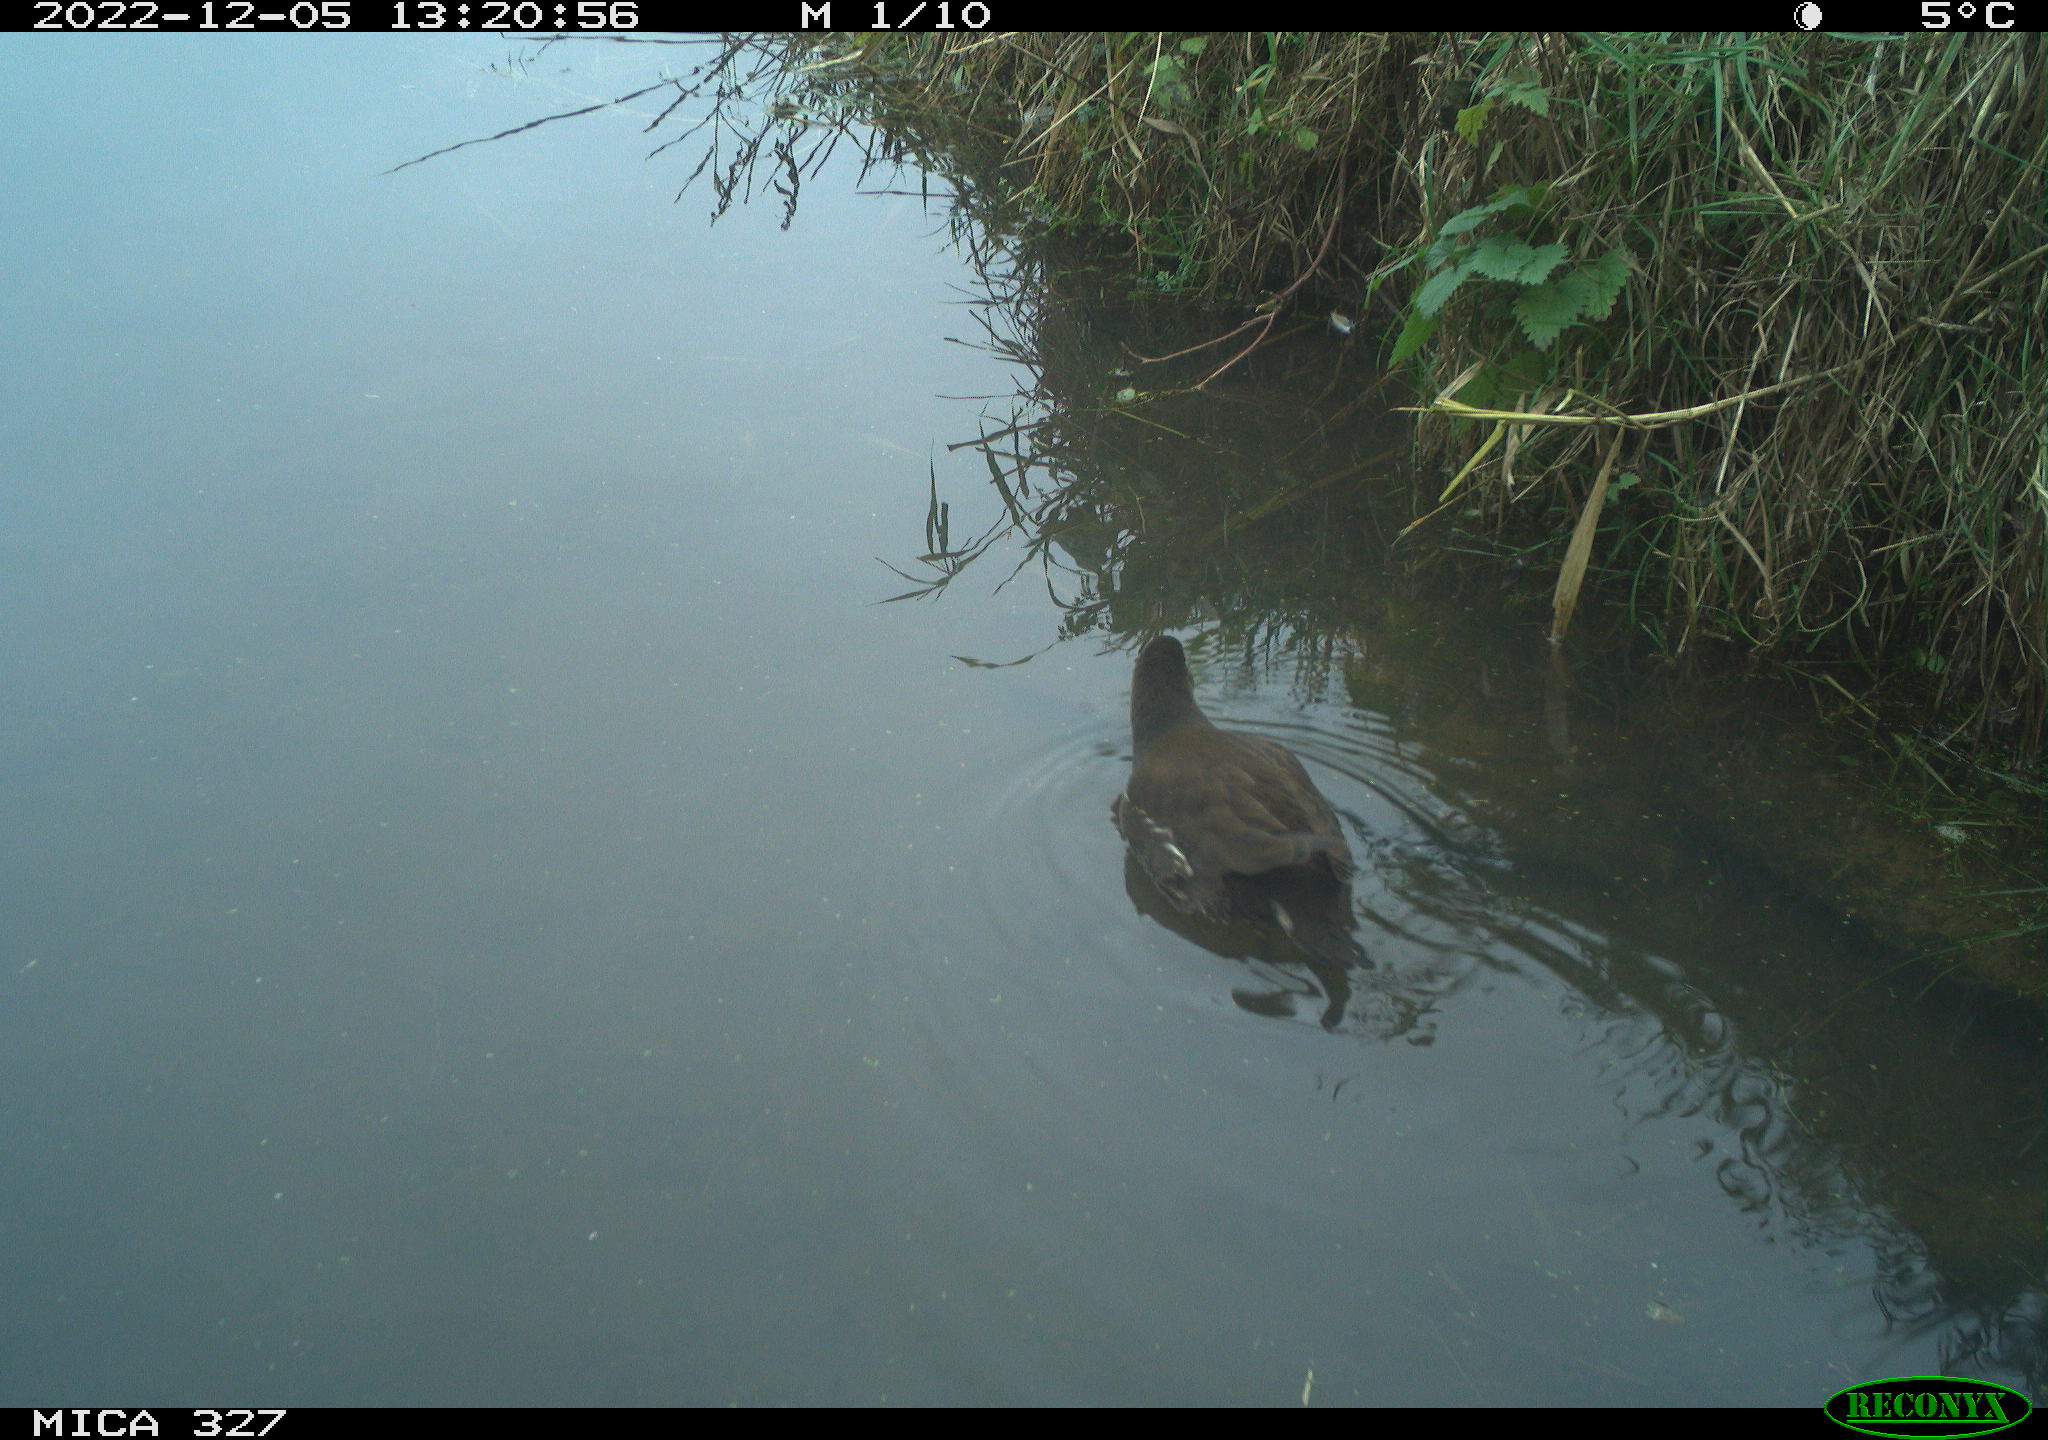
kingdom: Animalia
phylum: Chordata
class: Aves
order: Gruiformes
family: Rallidae
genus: Gallinula
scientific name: Gallinula chloropus
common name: Common moorhen
